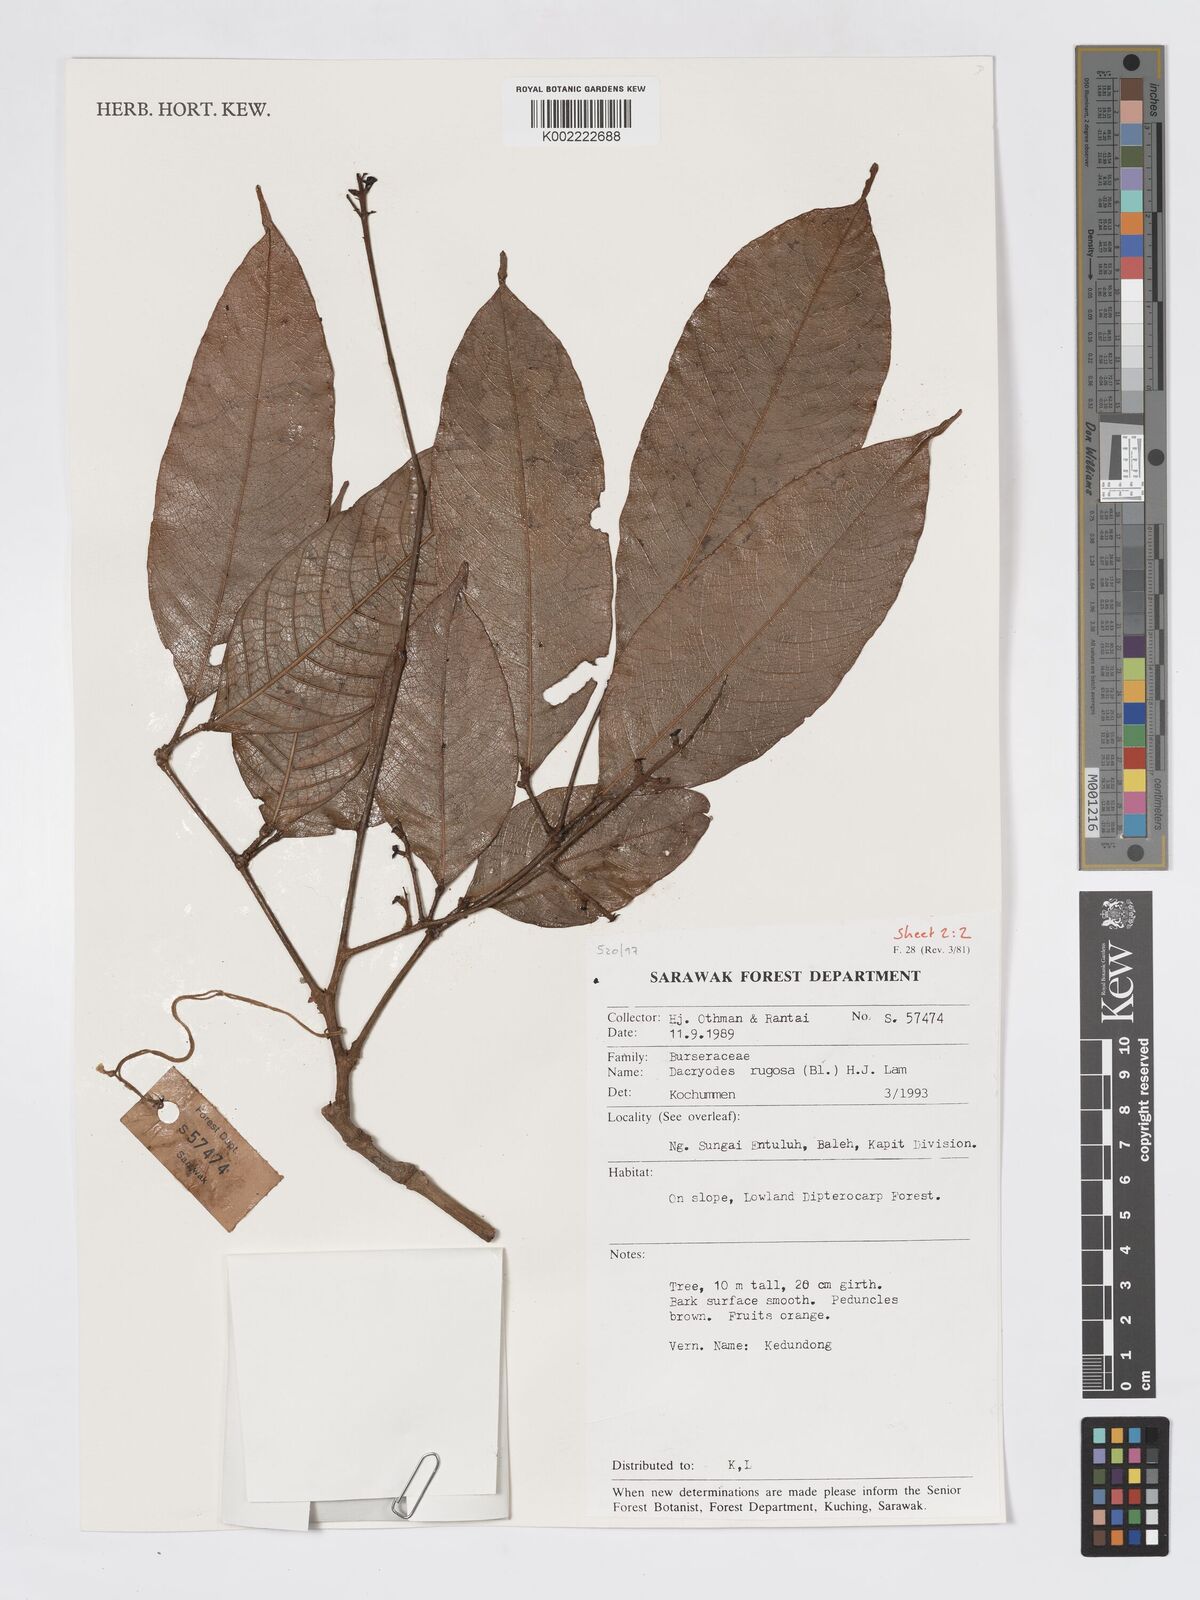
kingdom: Plantae
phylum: Tracheophyta
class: Magnoliopsida
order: Sapindales
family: Burseraceae
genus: Dacryodes
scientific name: Dacryodes rugosa
